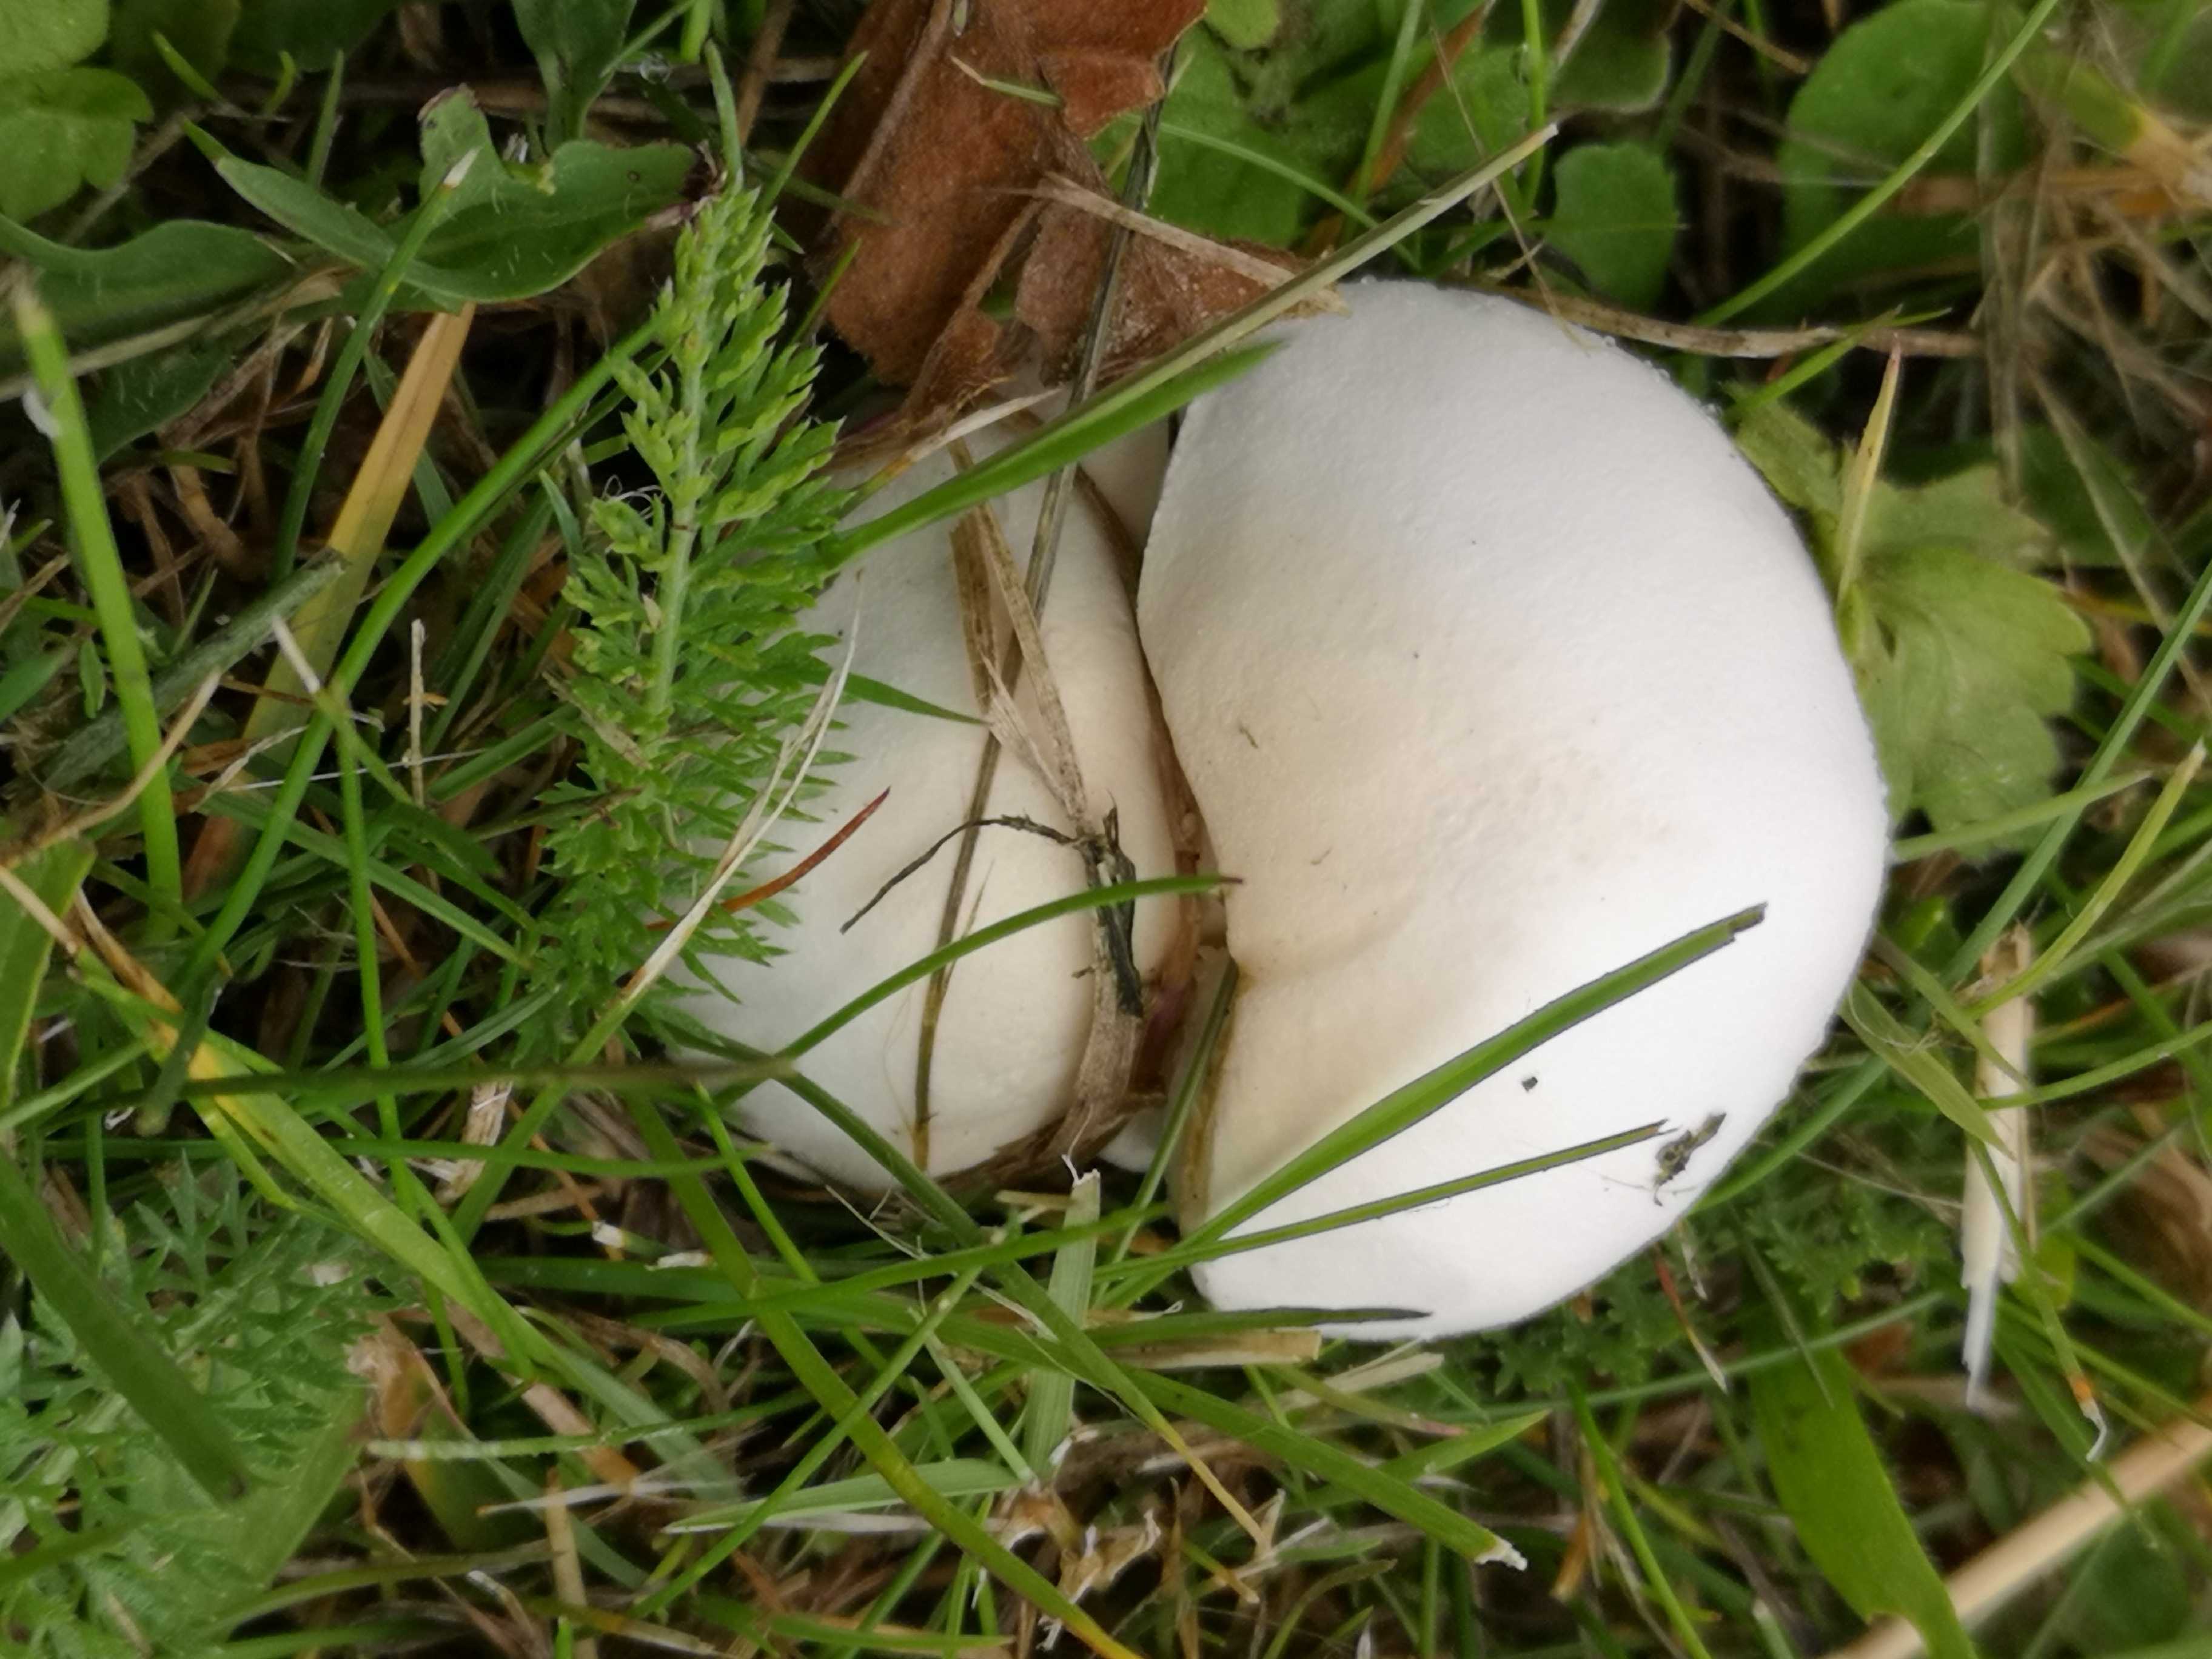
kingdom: Fungi
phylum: Basidiomycota
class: Agaricomycetes
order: Agaricales
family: Agaricaceae
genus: Leucoagaricus
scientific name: Leucoagaricus leucothites
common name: rosabladet silkehat
